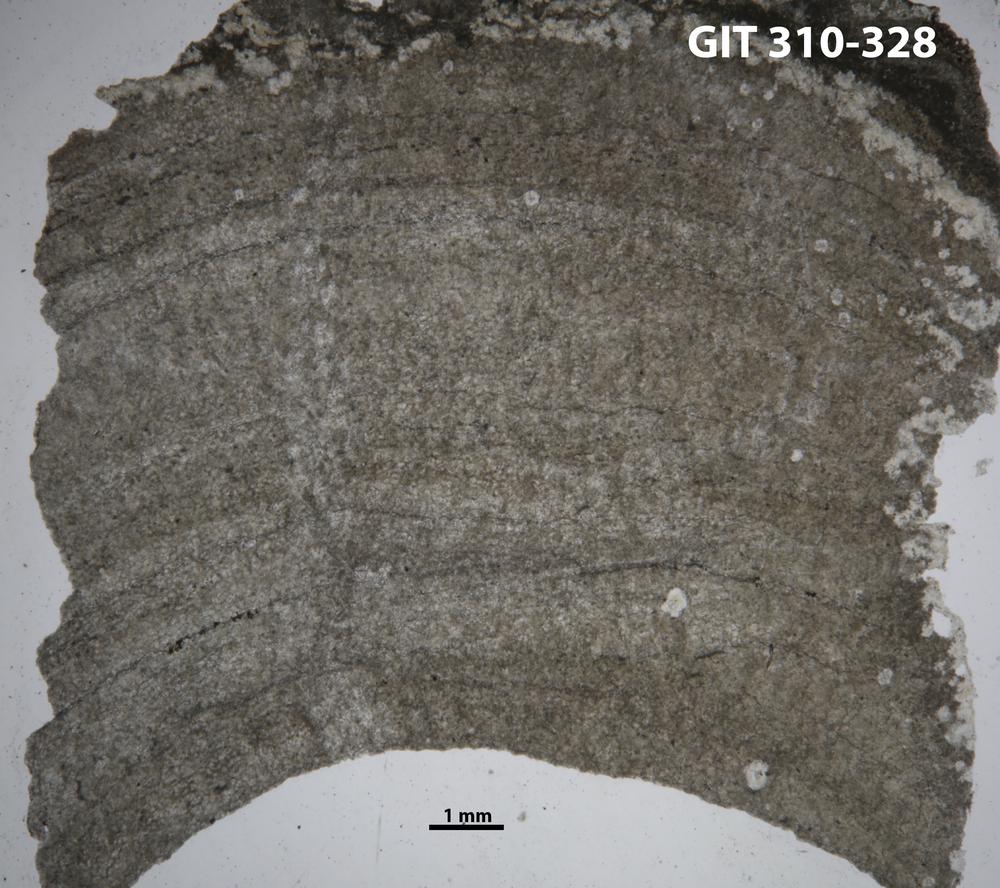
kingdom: Animalia
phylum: Porifera
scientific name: Porifera
